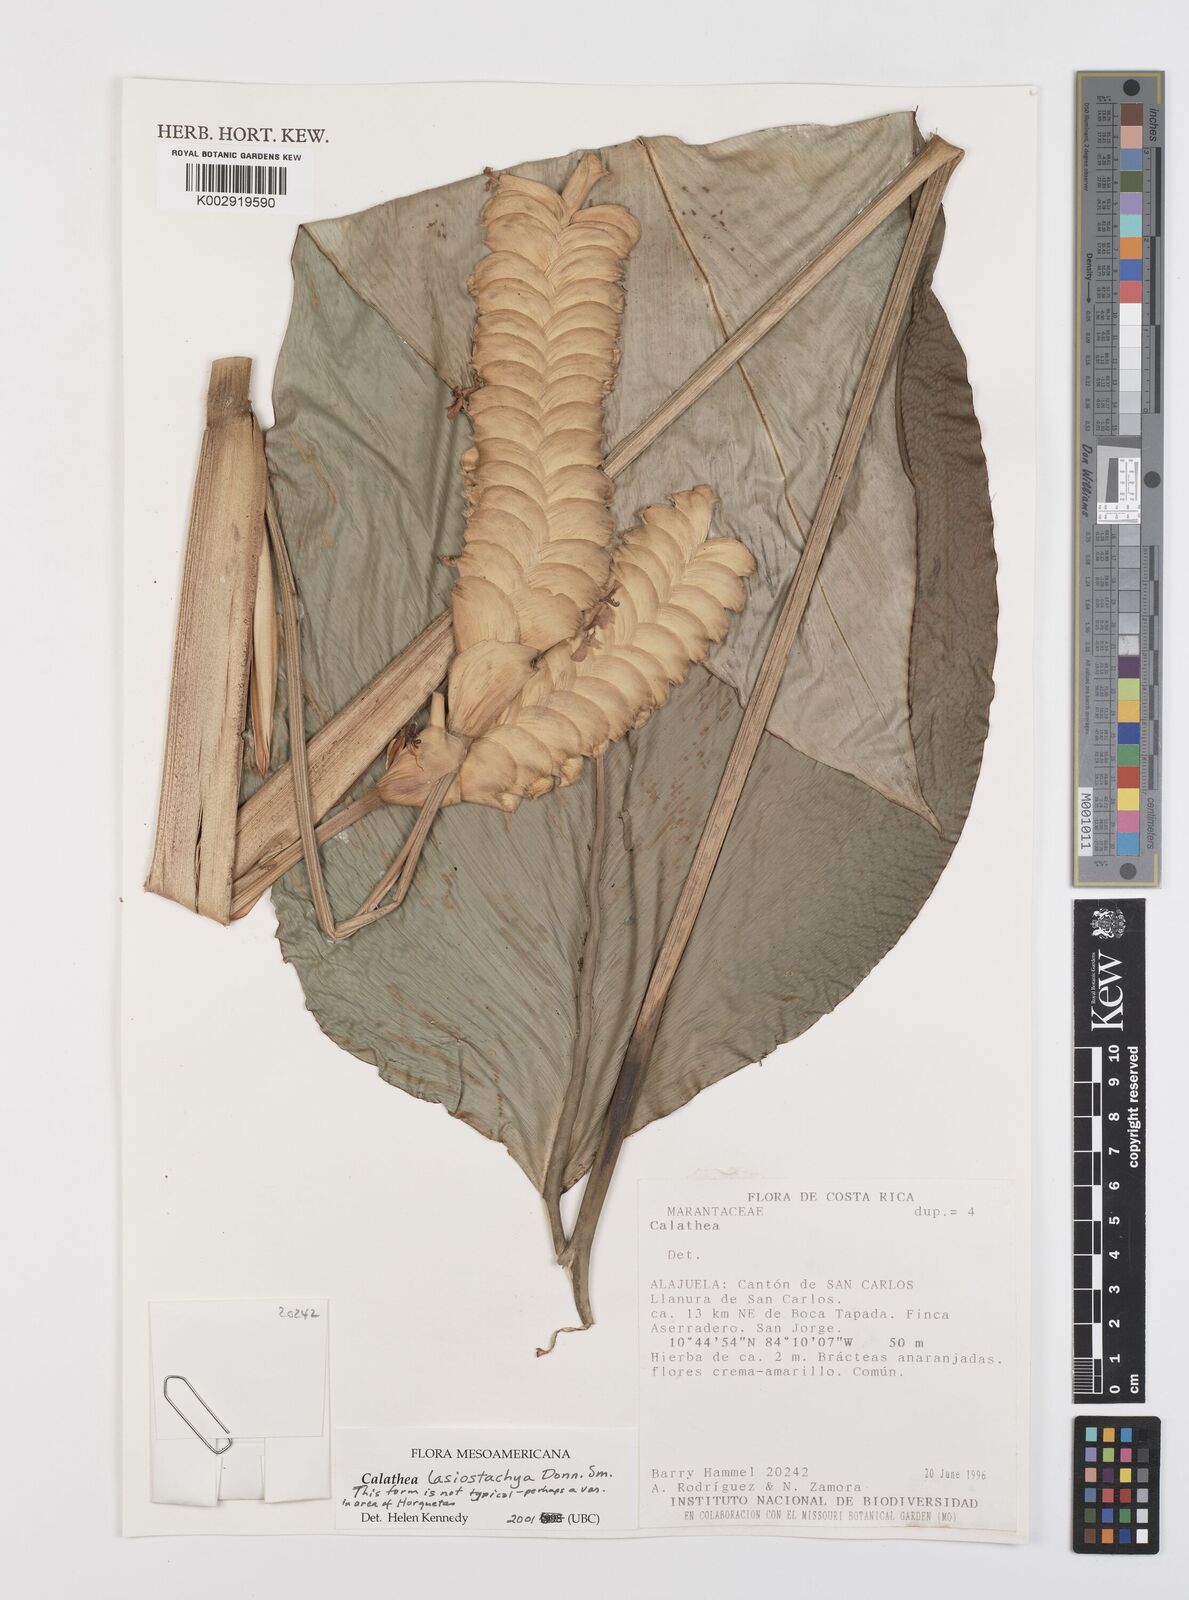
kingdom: Plantae
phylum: Tracheophyta
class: Liliopsida
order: Zingiberales
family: Marantaceae
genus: Calathea
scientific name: Calathea lasiostachya
